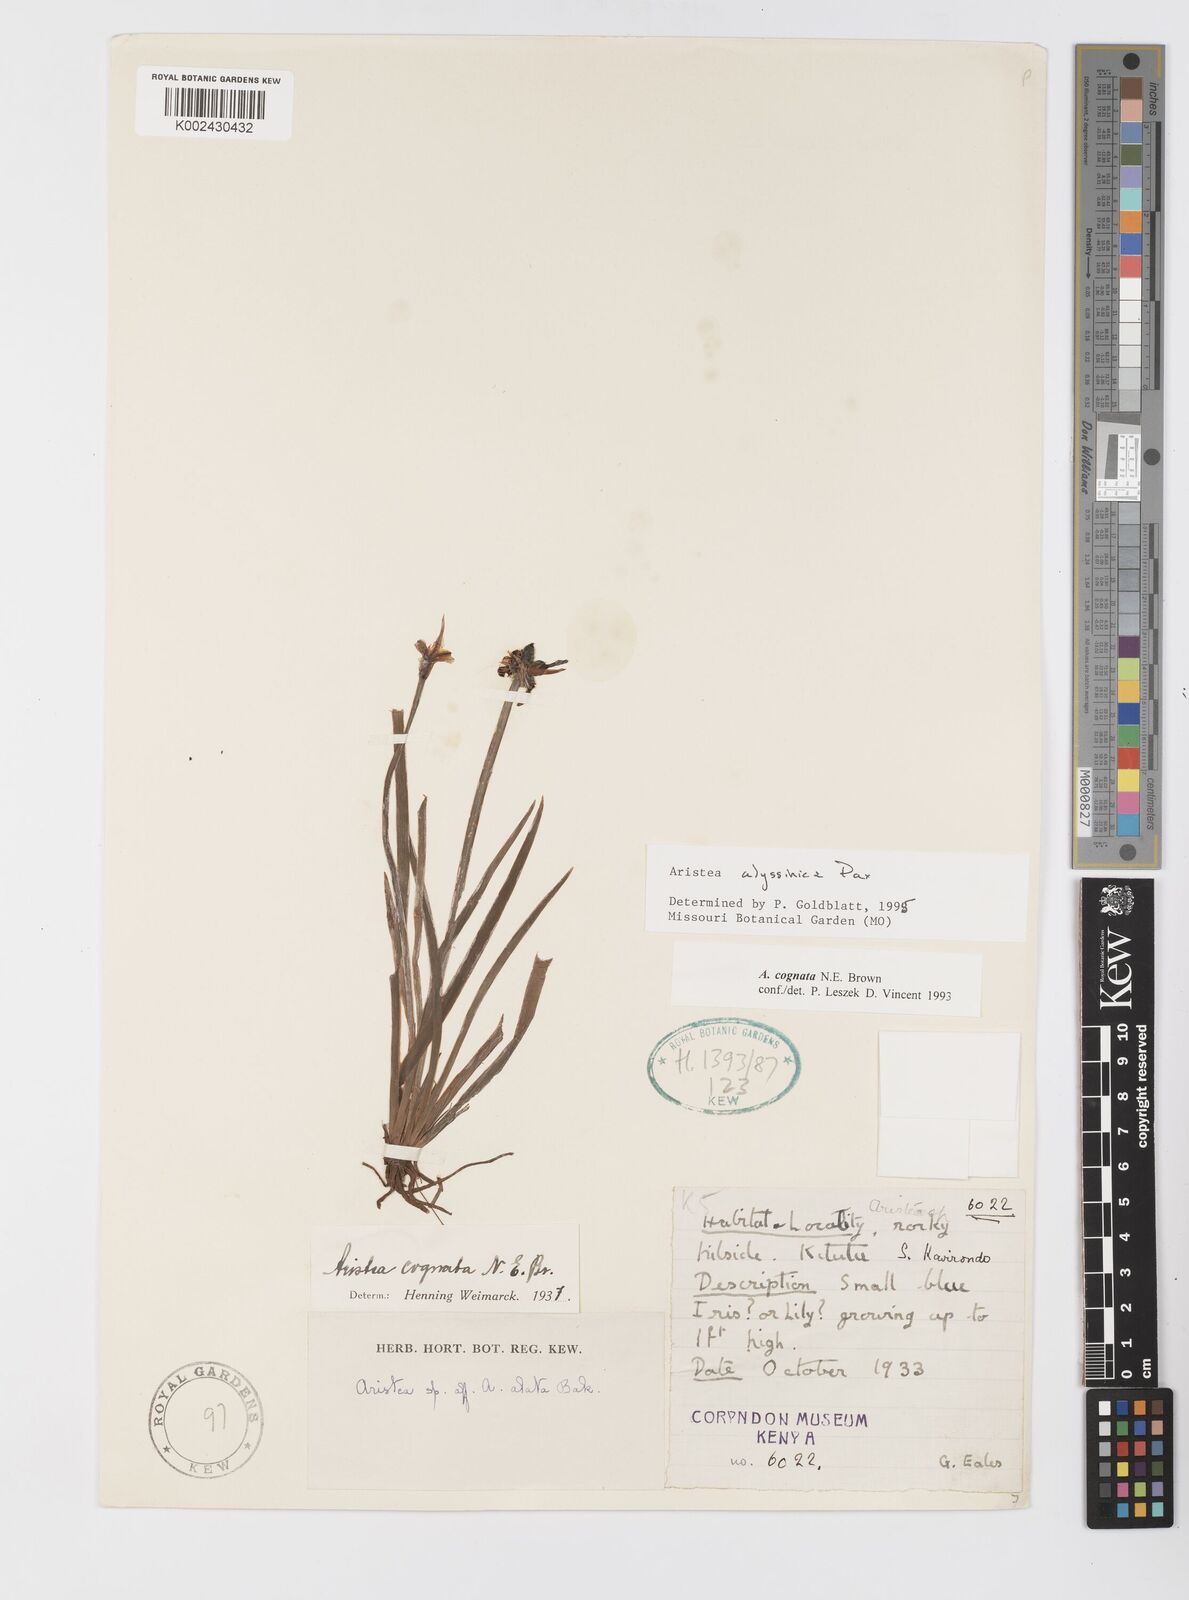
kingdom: Plantae
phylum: Tracheophyta
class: Liliopsida
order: Asparagales
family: Iridaceae
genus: Aristea
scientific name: Aristea abyssinica
